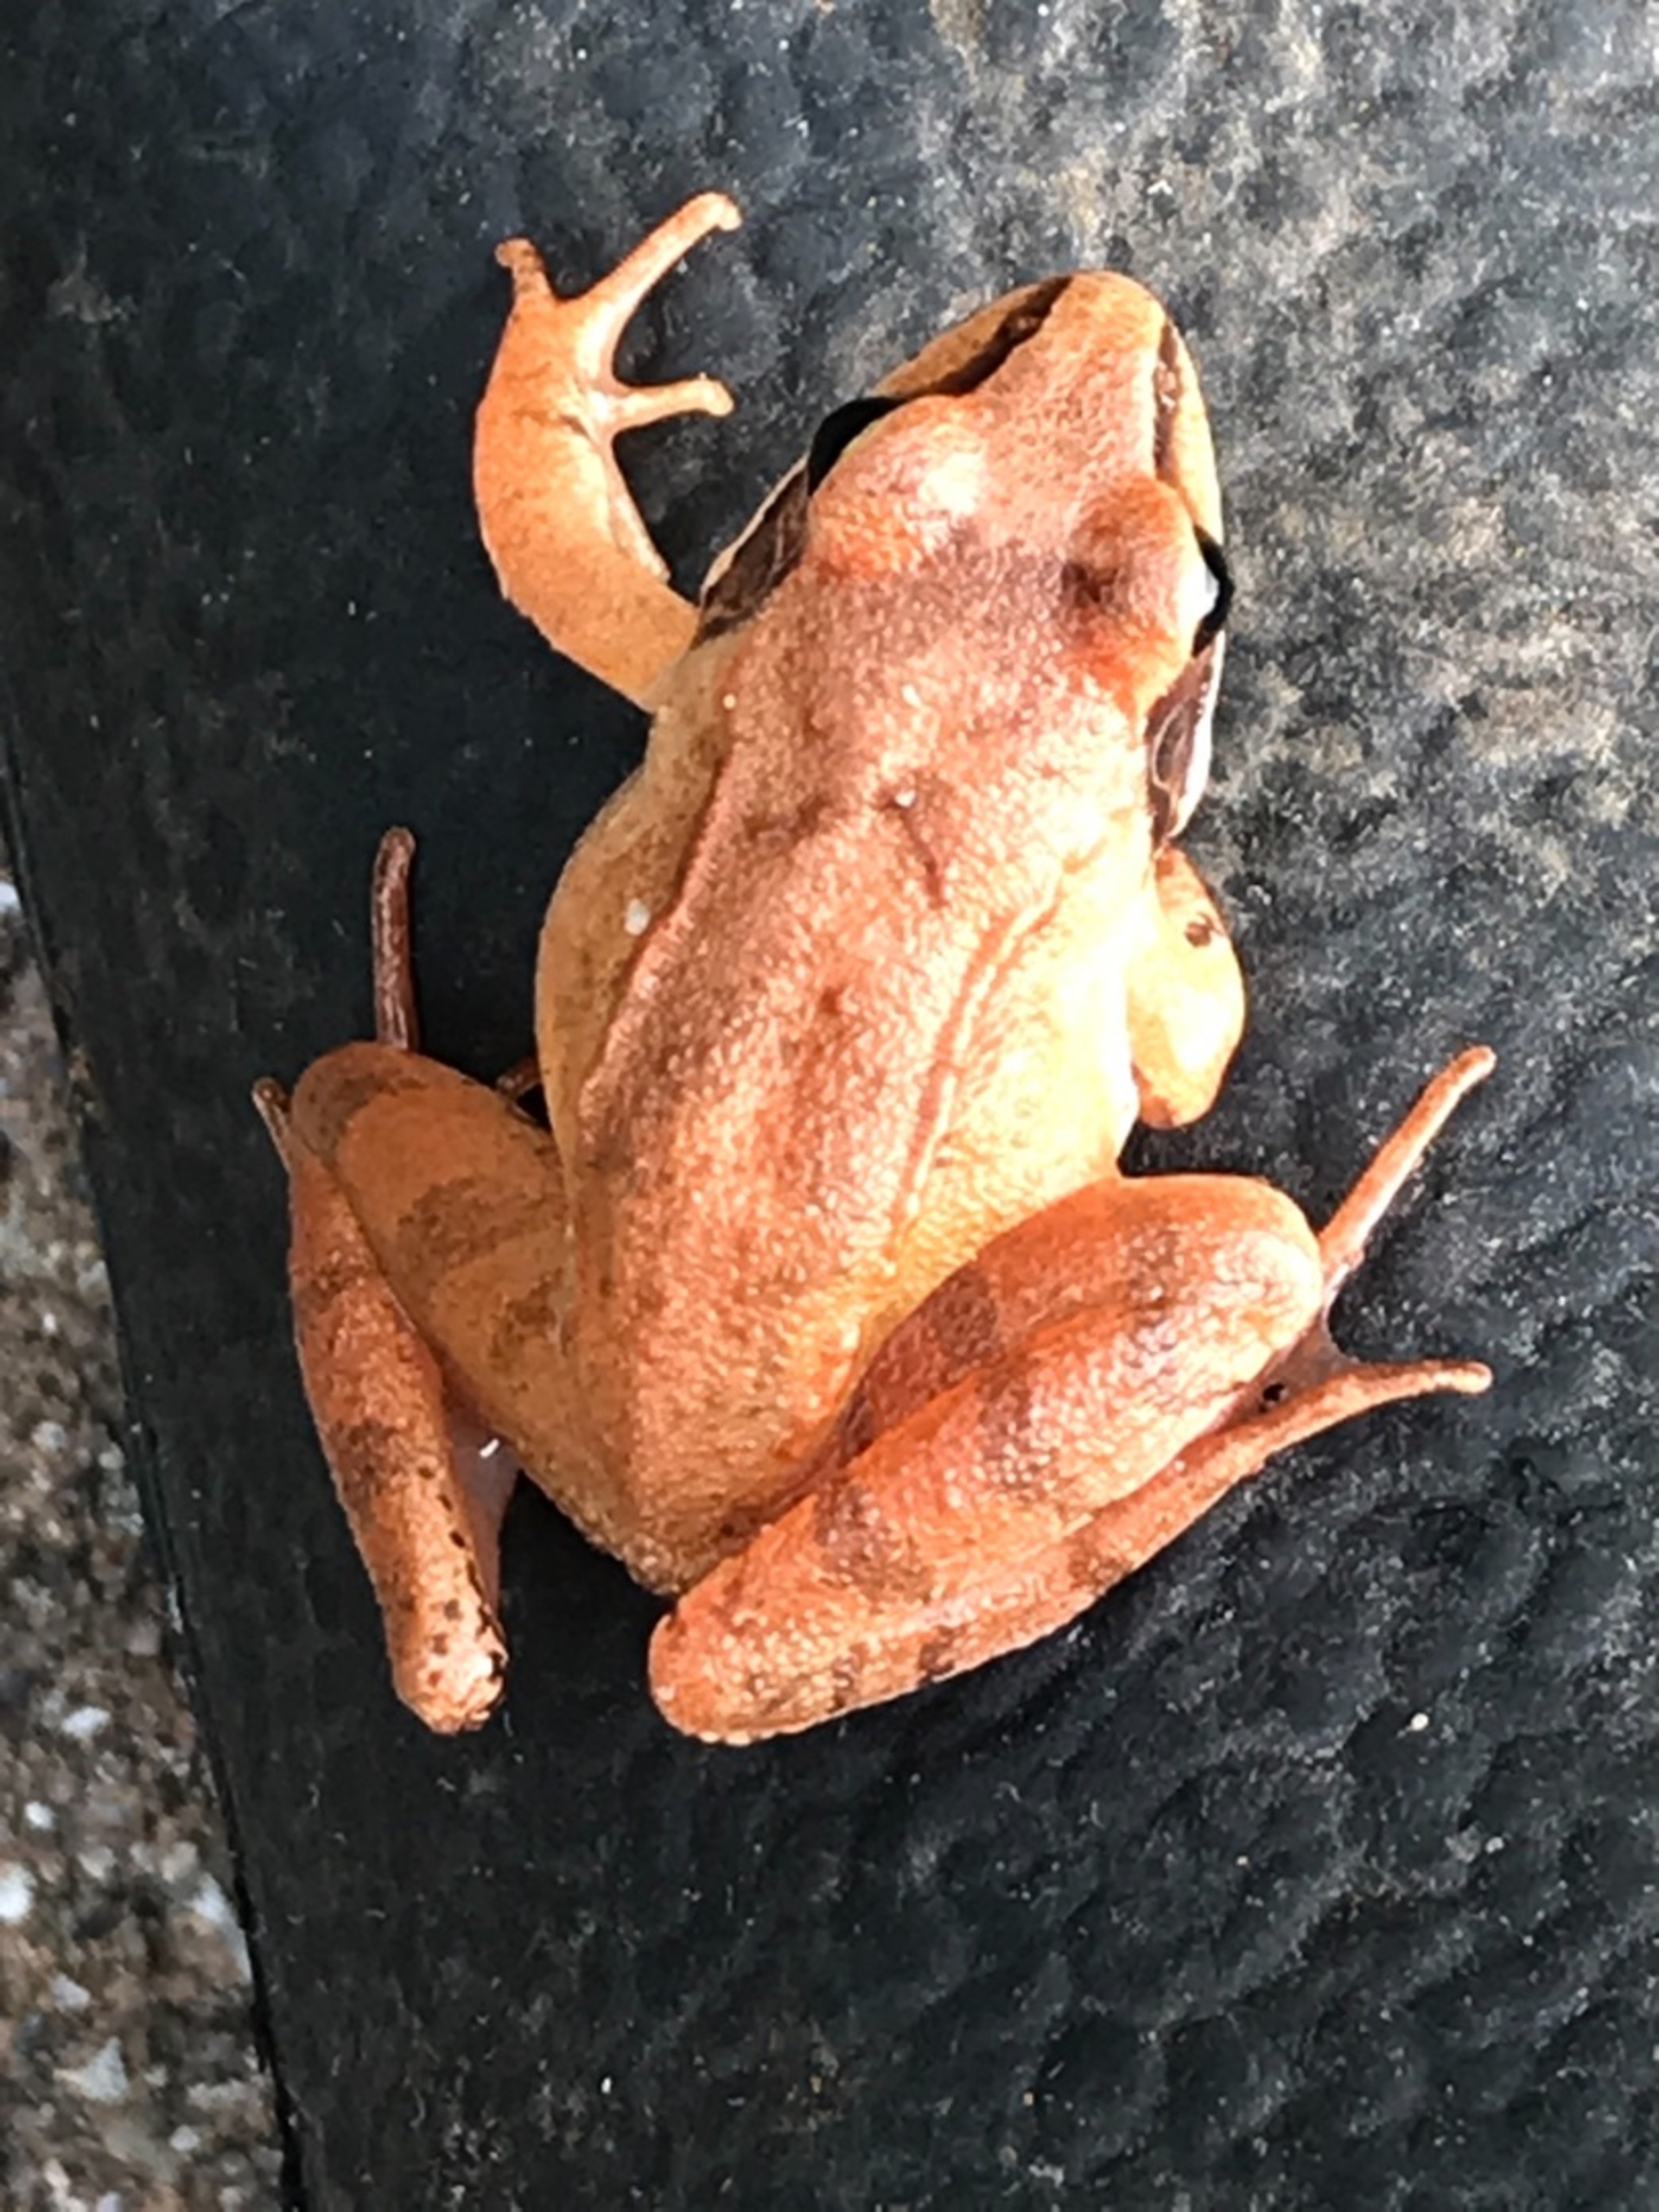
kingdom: Animalia
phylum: Chordata
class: Amphibia
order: Anura
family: Ranidae
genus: Rana
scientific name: Rana dalmatina
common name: Springfrø
